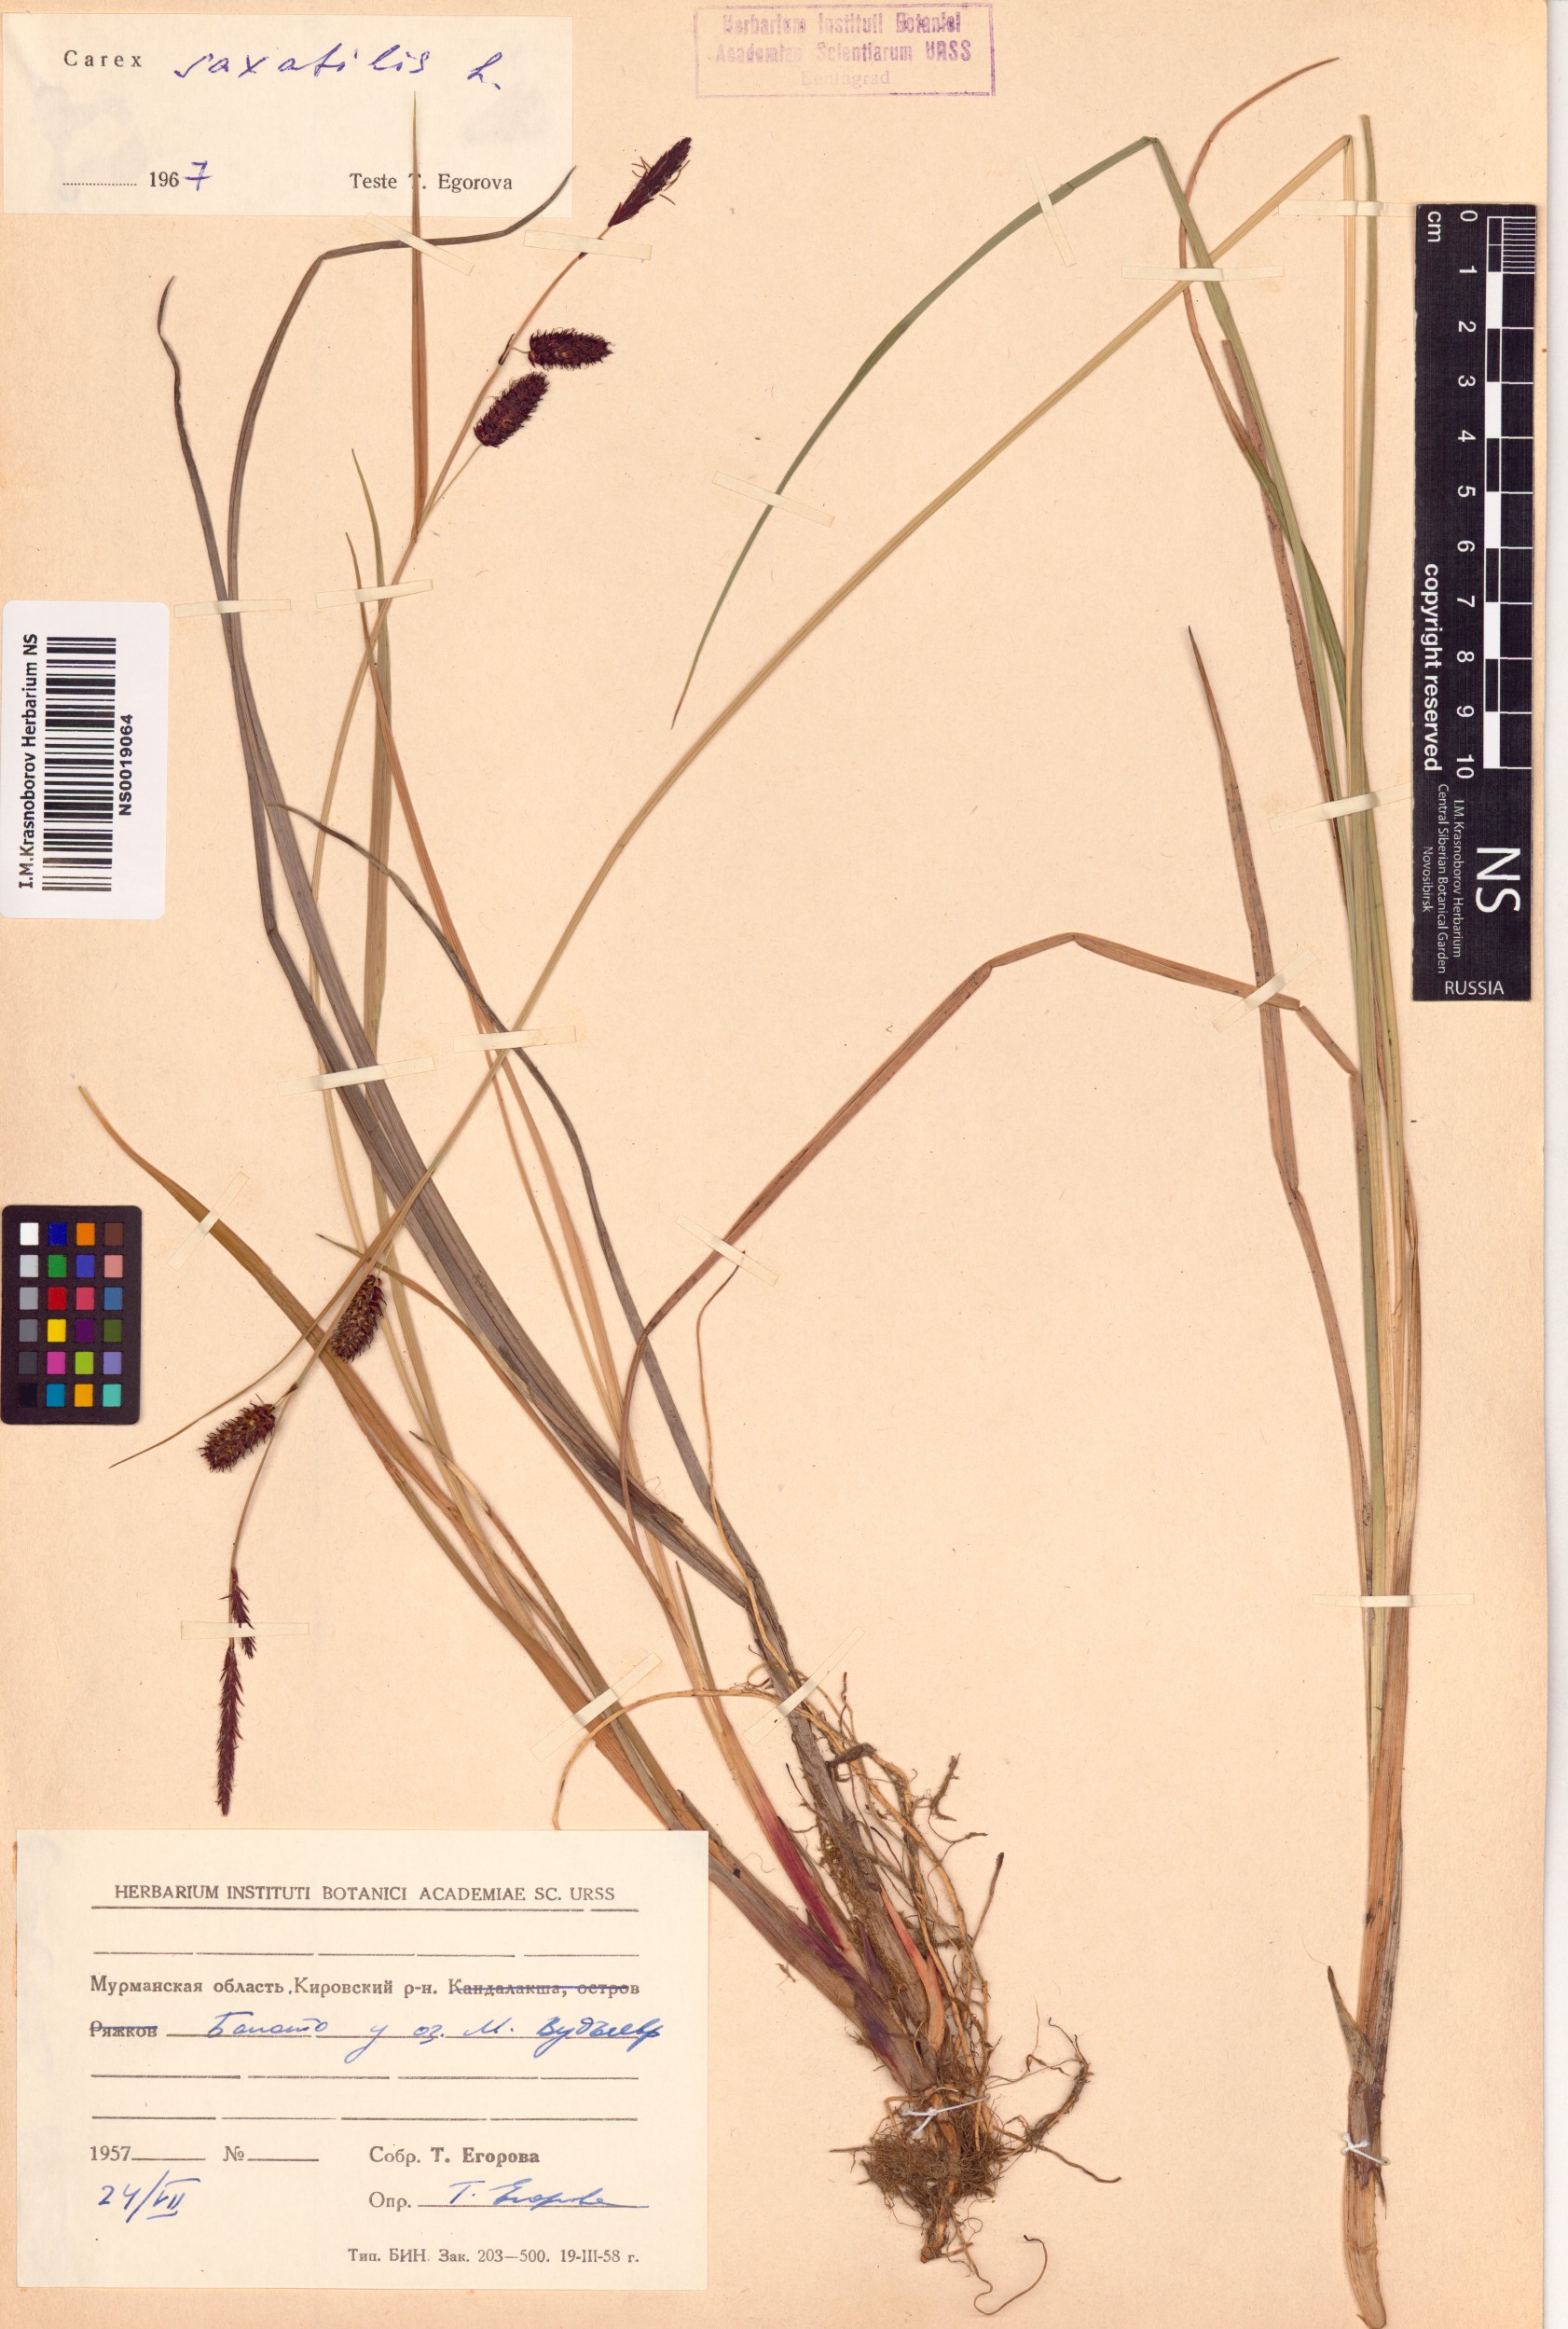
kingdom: Plantae
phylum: Tracheophyta
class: Liliopsida
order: Poales
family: Cyperaceae
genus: Carex
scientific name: Carex saxatilis
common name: Russet sedge
